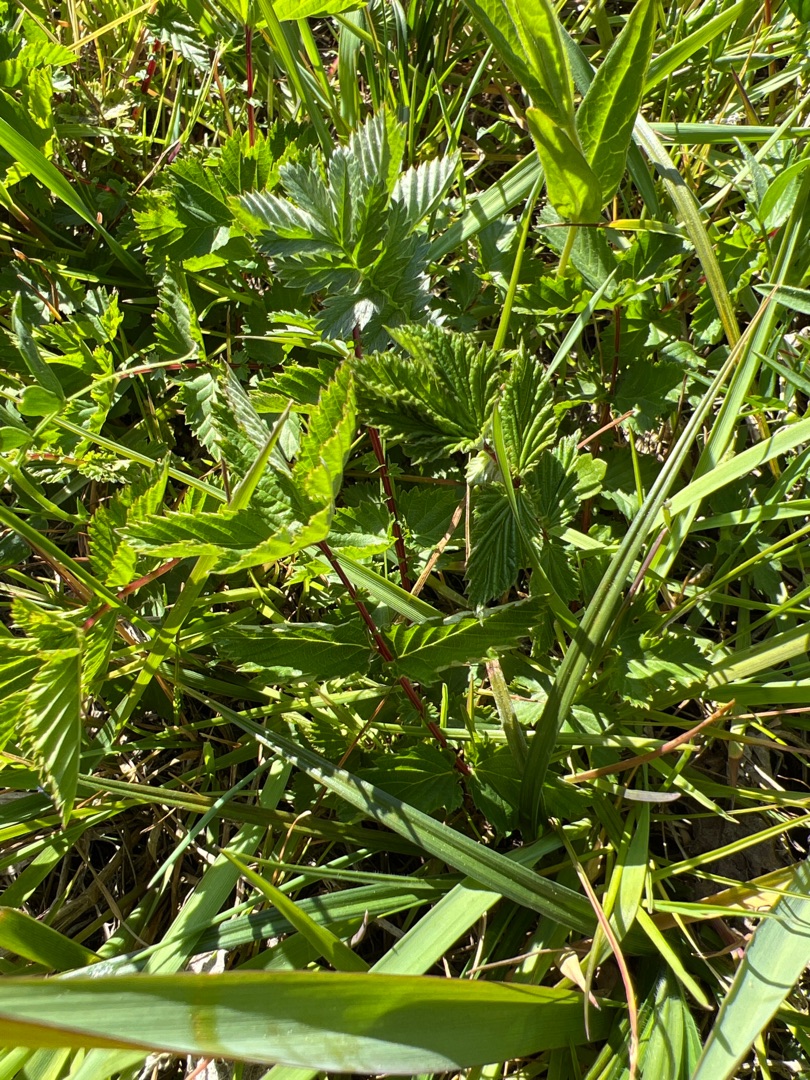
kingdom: Plantae
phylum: Tracheophyta
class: Magnoliopsida
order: Rosales
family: Rosaceae
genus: Filipendula
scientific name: Filipendula ulmaria
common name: Almindelig mjødurt
